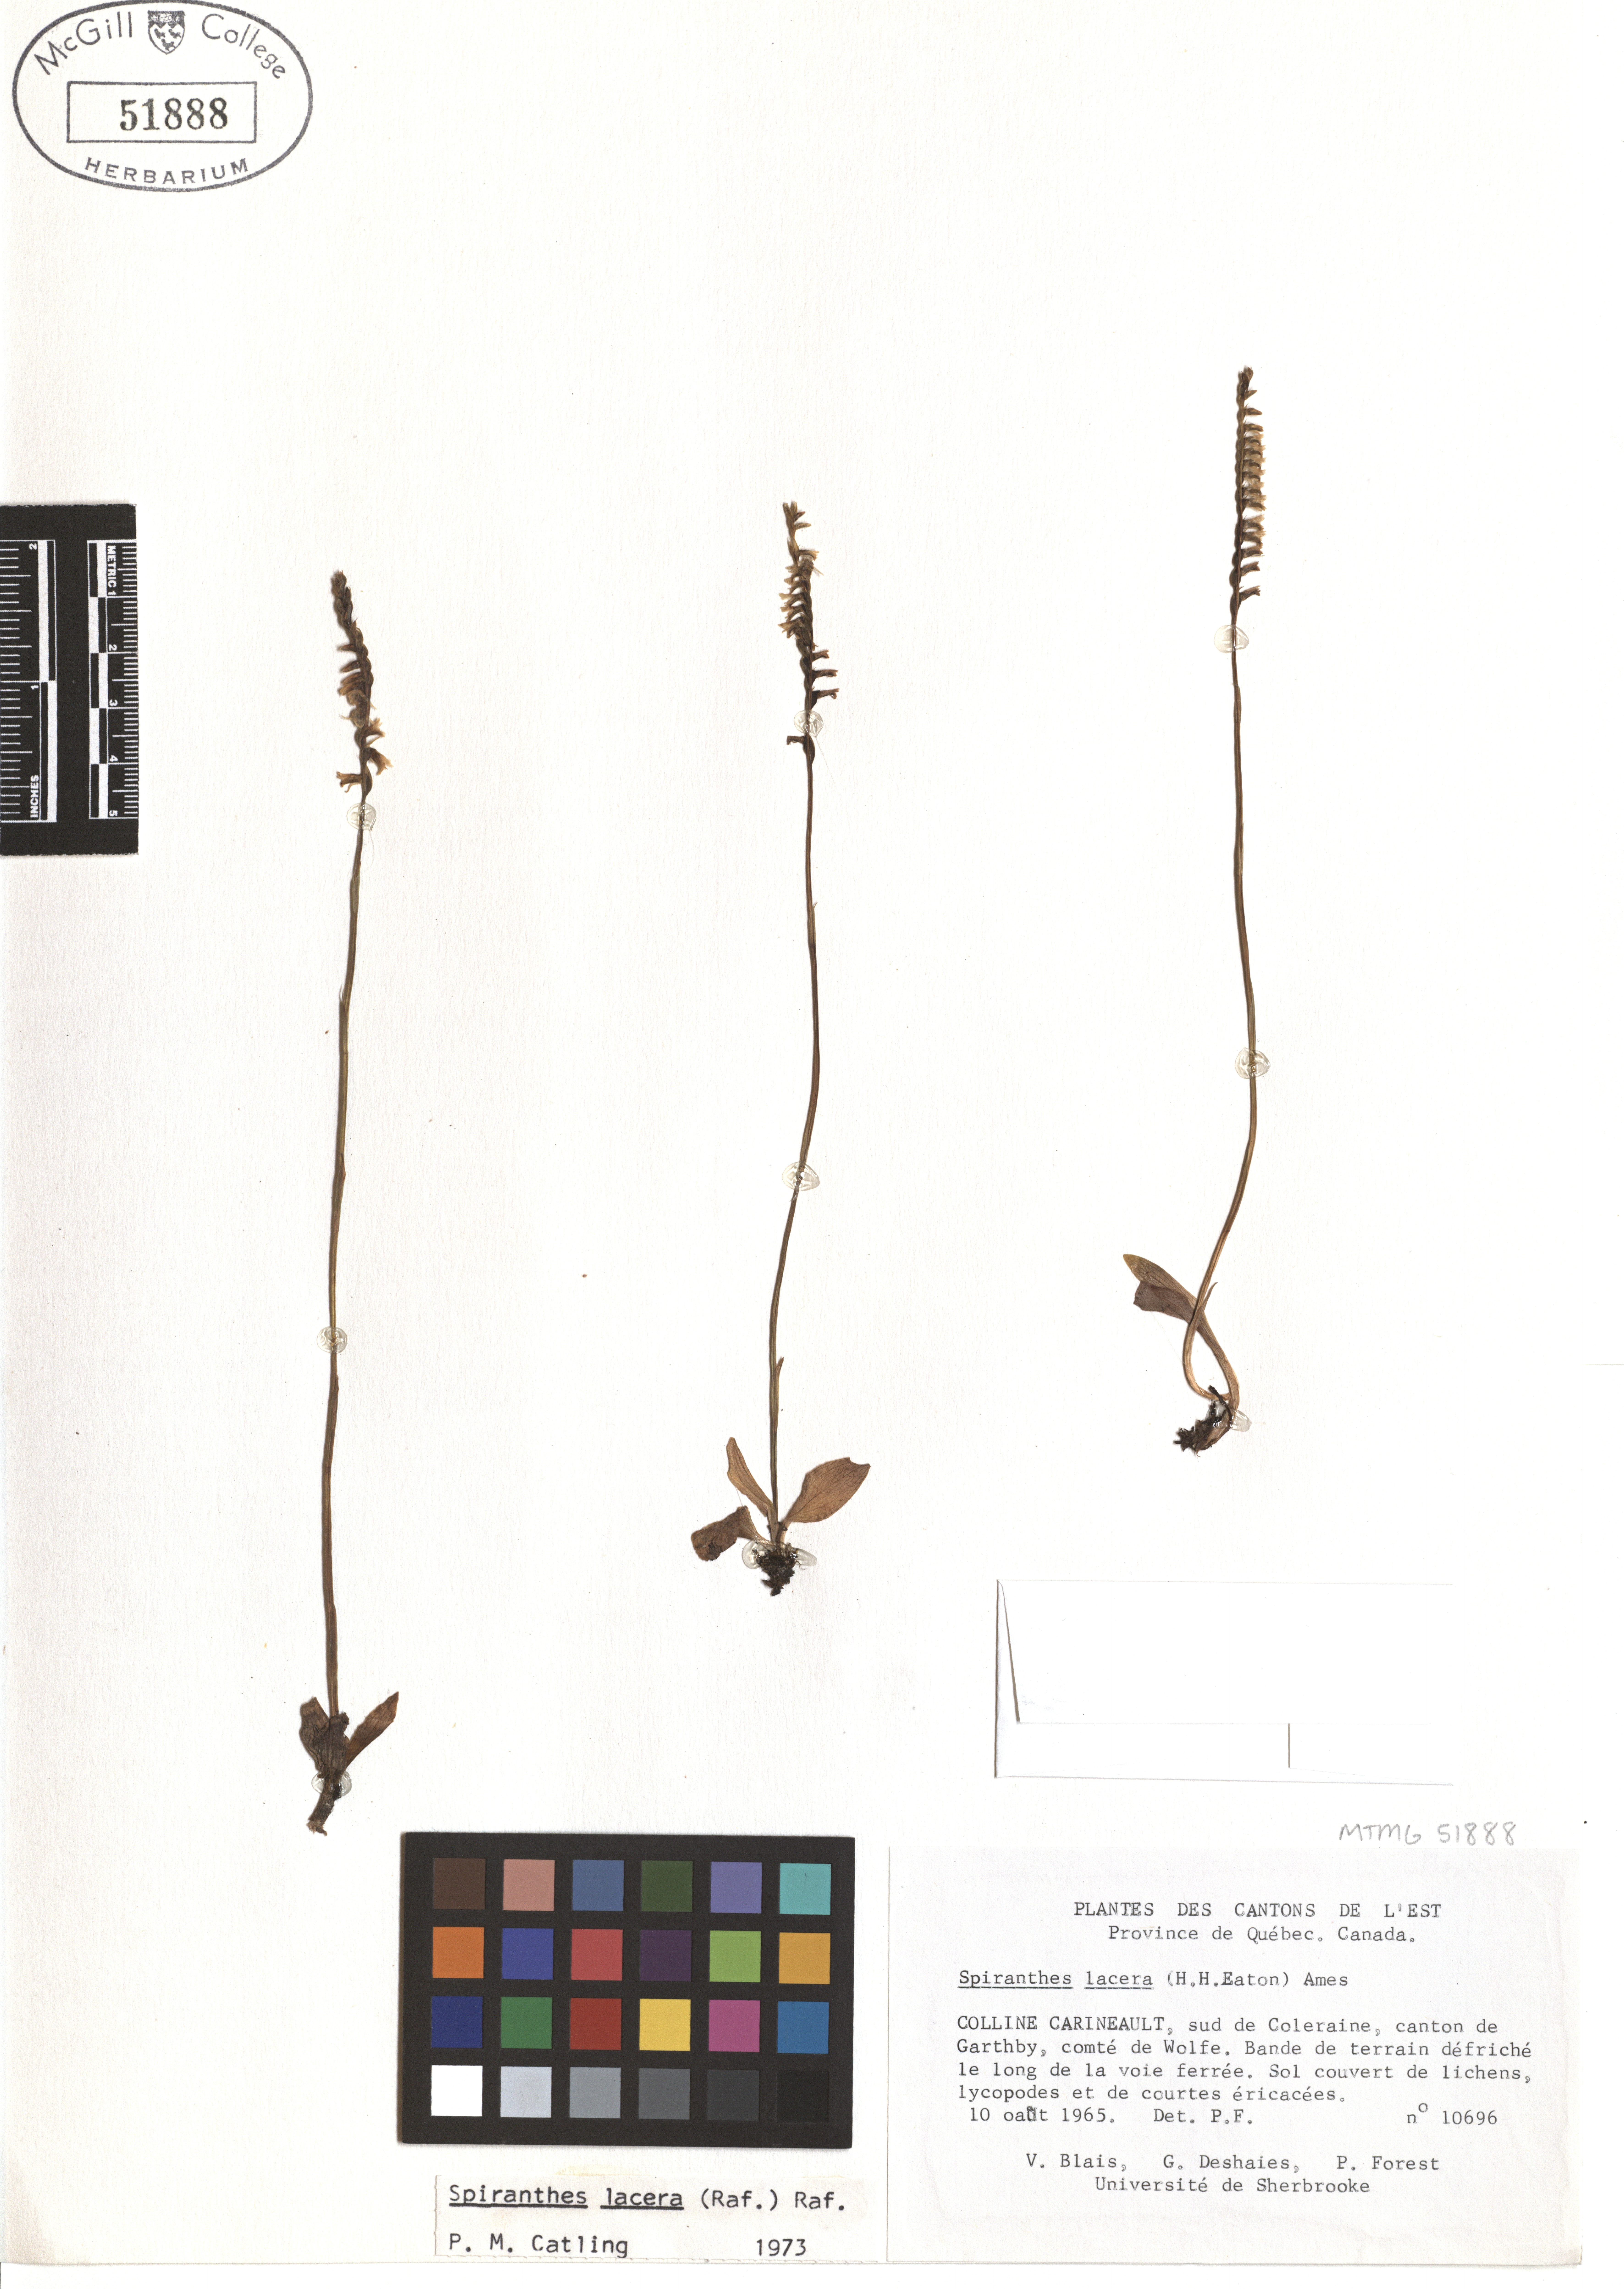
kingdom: Plantae
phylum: Tracheophyta
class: Liliopsida
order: Asparagales
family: Orchidaceae
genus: Spiranthes
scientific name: Spiranthes lacera
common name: Northern slender ladies'-tresses
